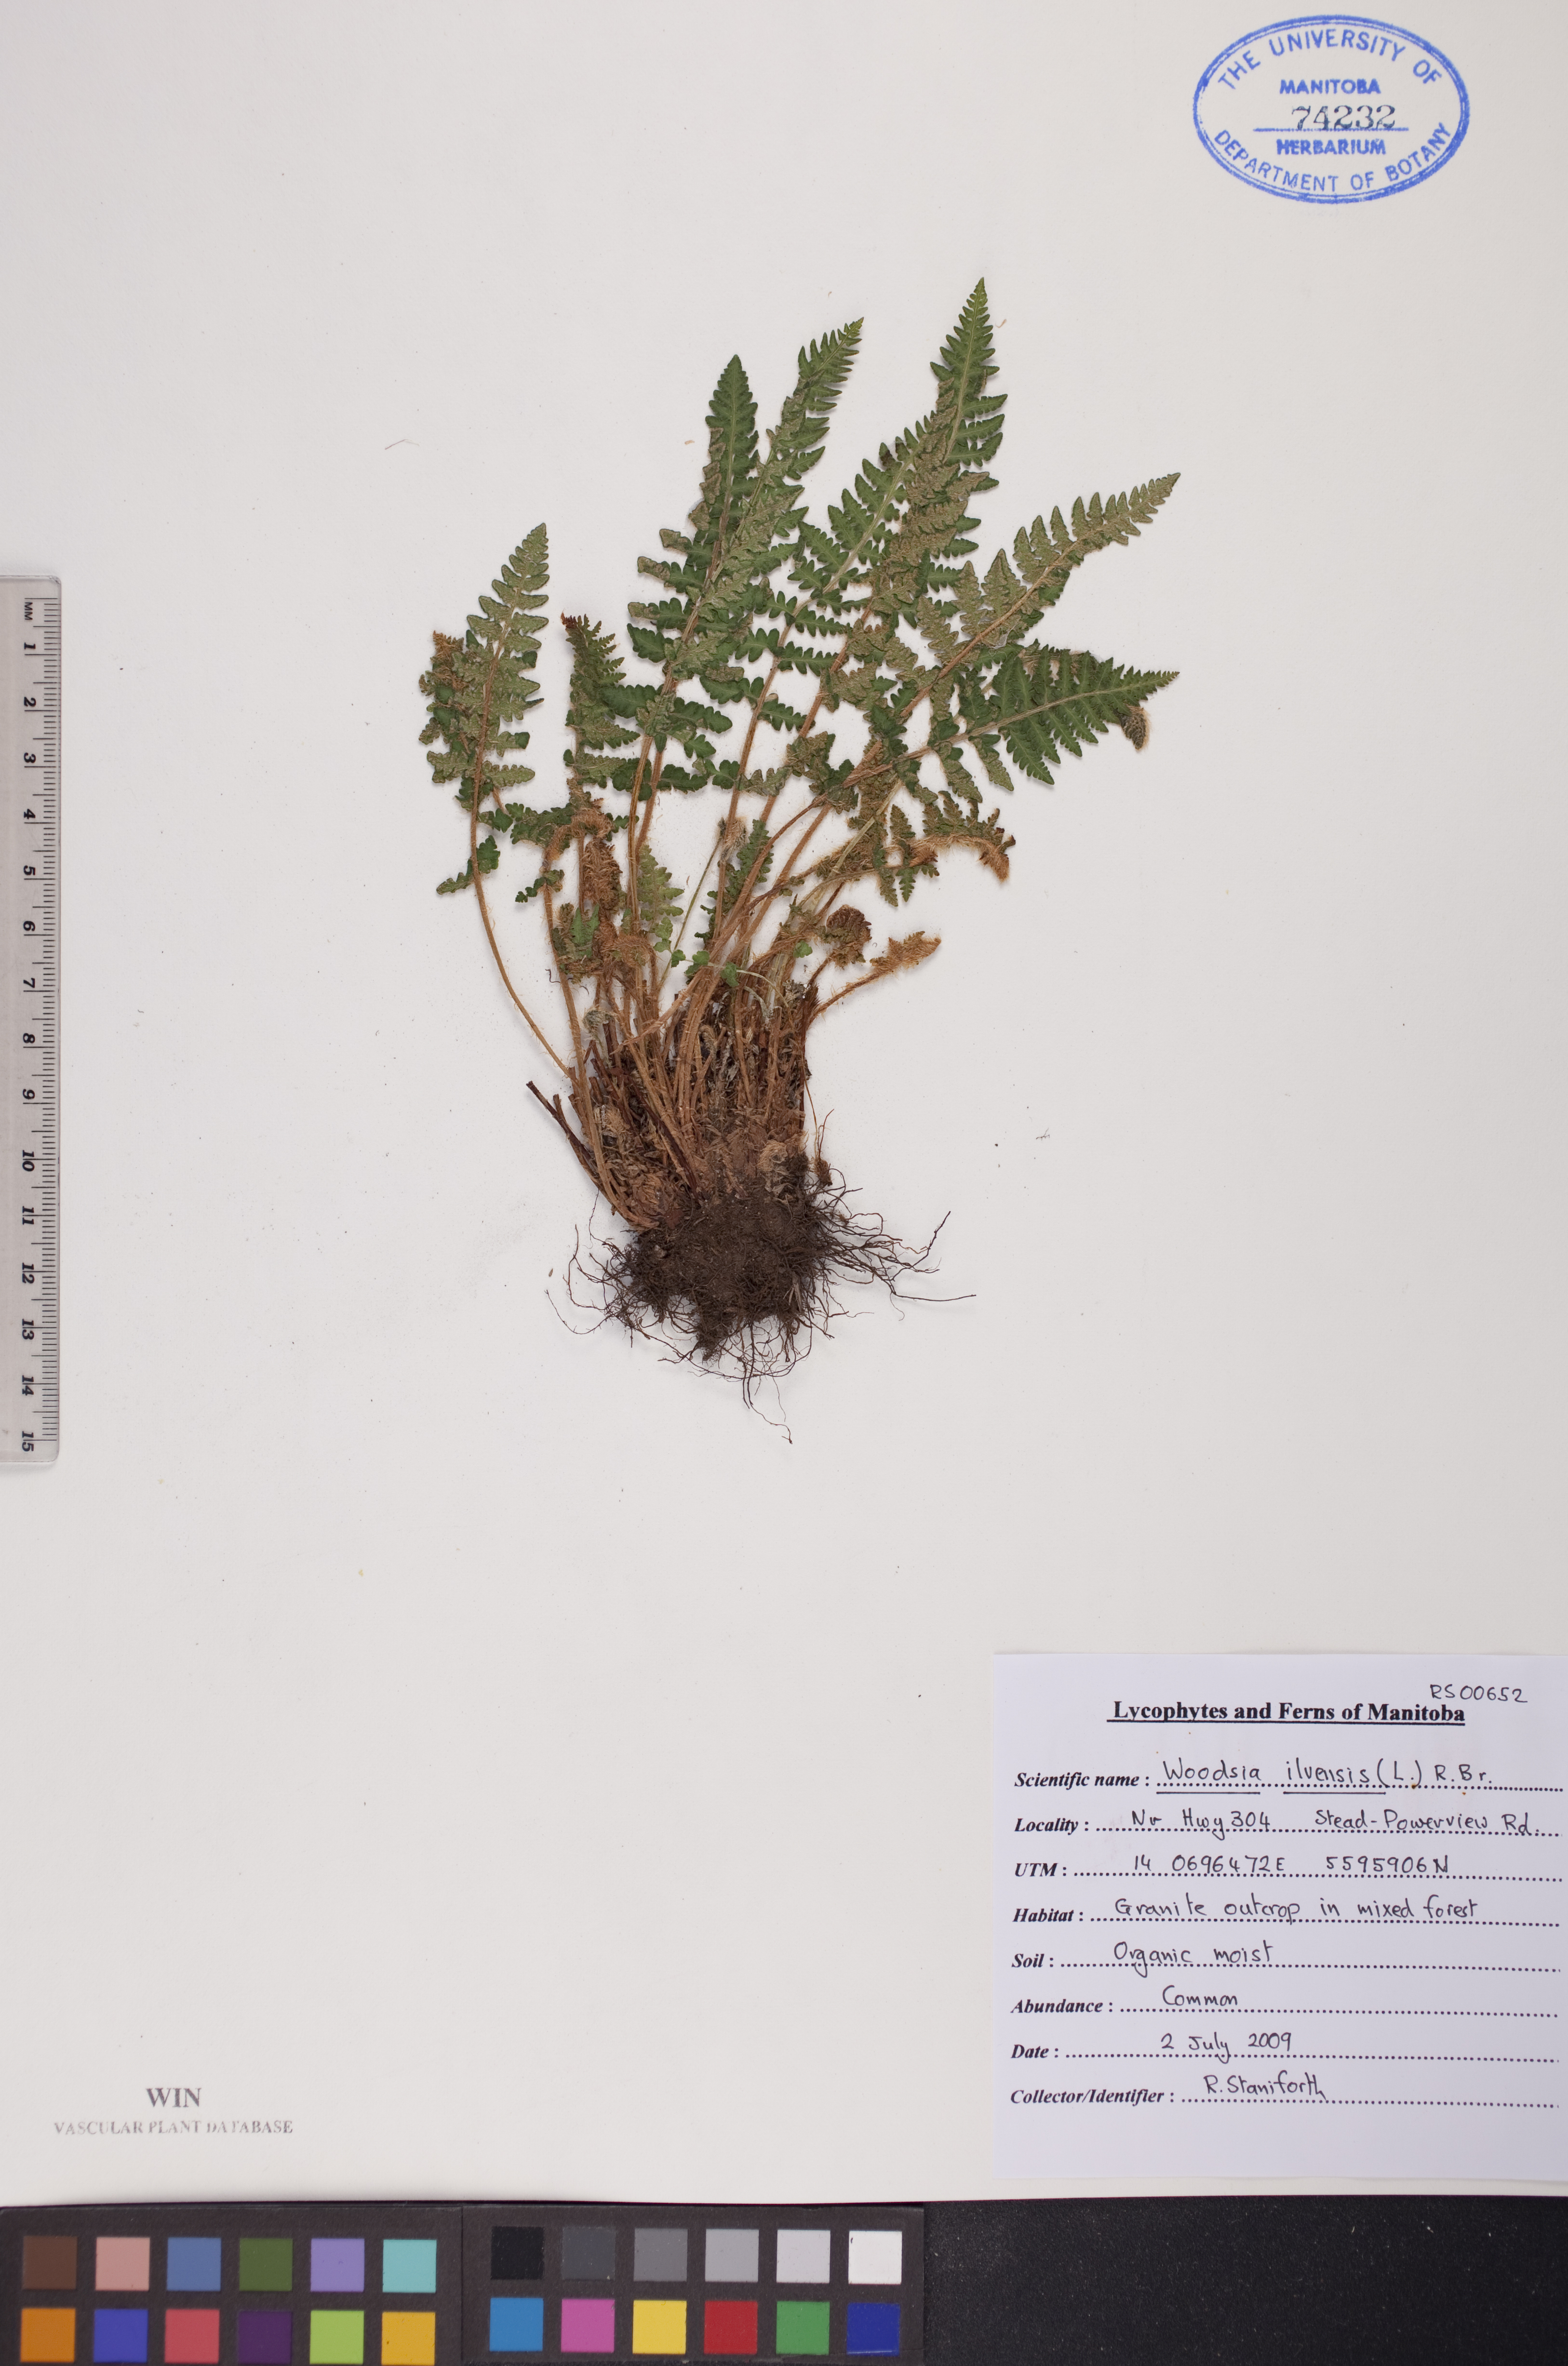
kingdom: Plantae
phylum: Tracheophyta
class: Polypodiopsida
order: Polypodiales
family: Woodsiaceae
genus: Woodsia
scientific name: Woodsia ilvensis
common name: Fragrant woodsia
